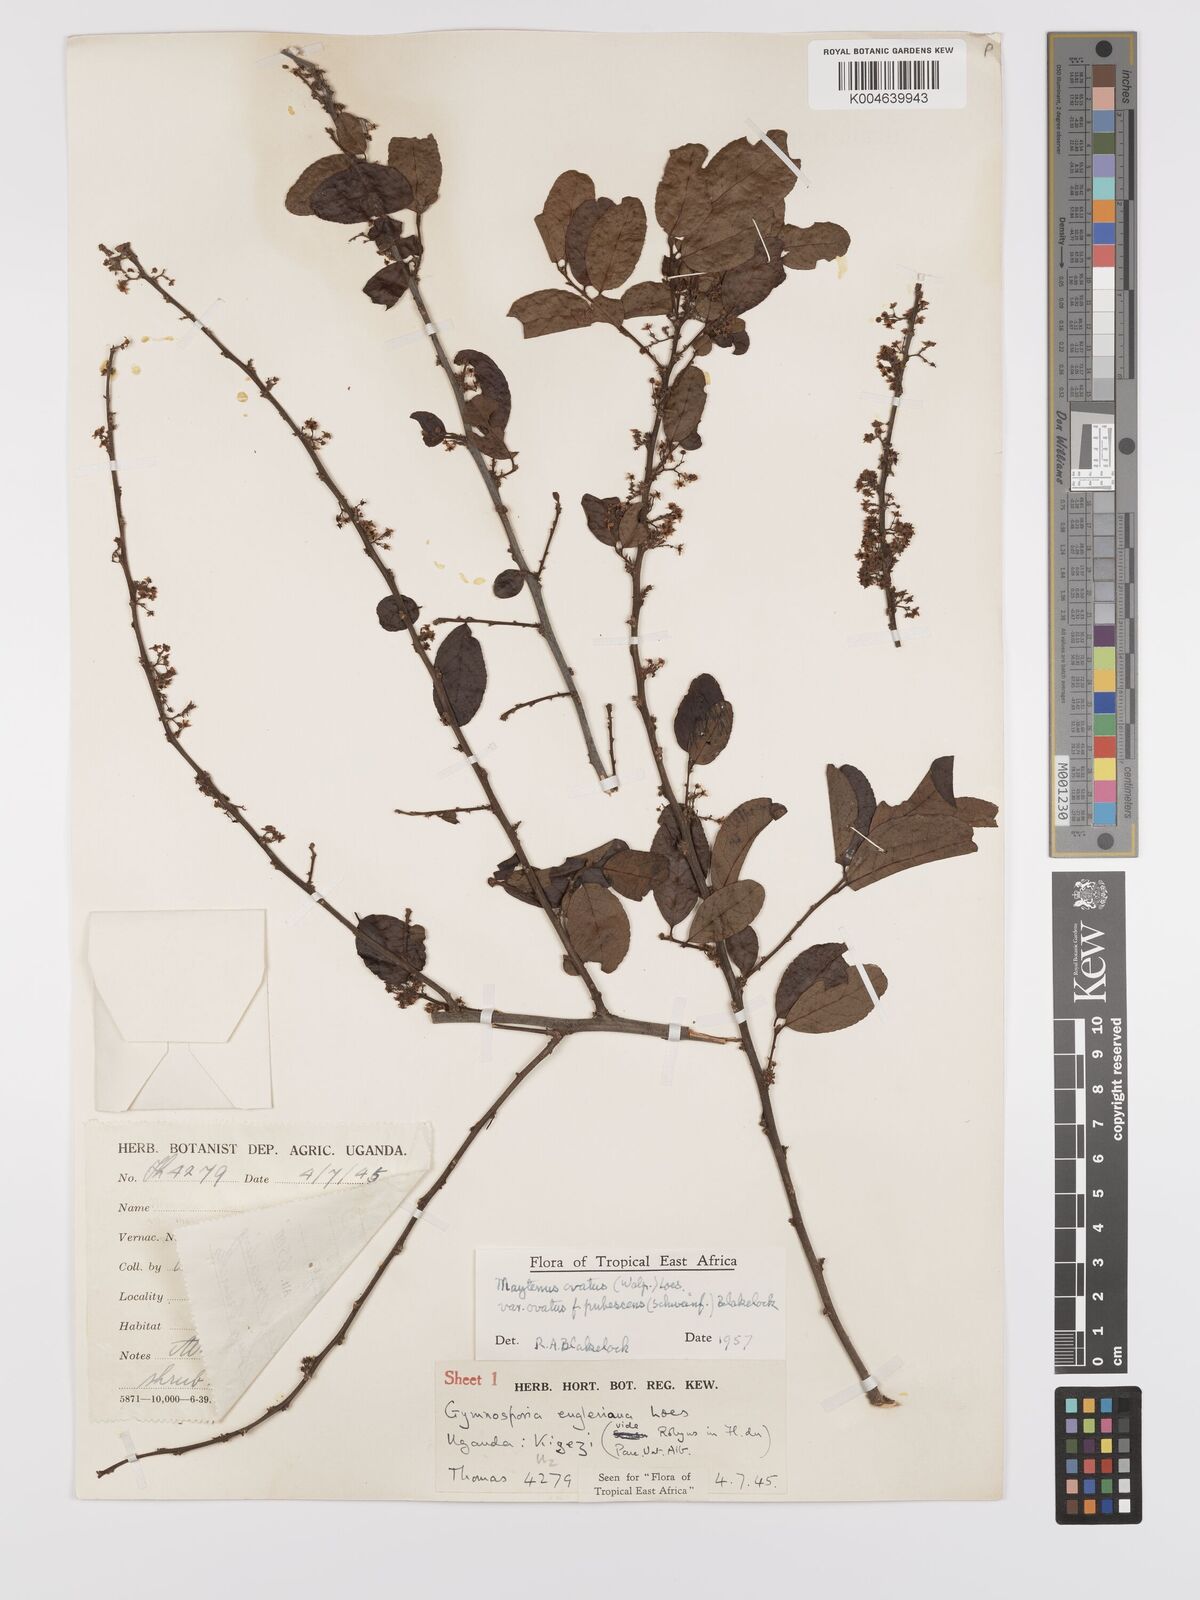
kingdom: Plantae
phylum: Tracheophyta
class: Magnoliopsida
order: Celastrales
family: Celastraceae
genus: Gymnosporia
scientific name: Gymnosporia
